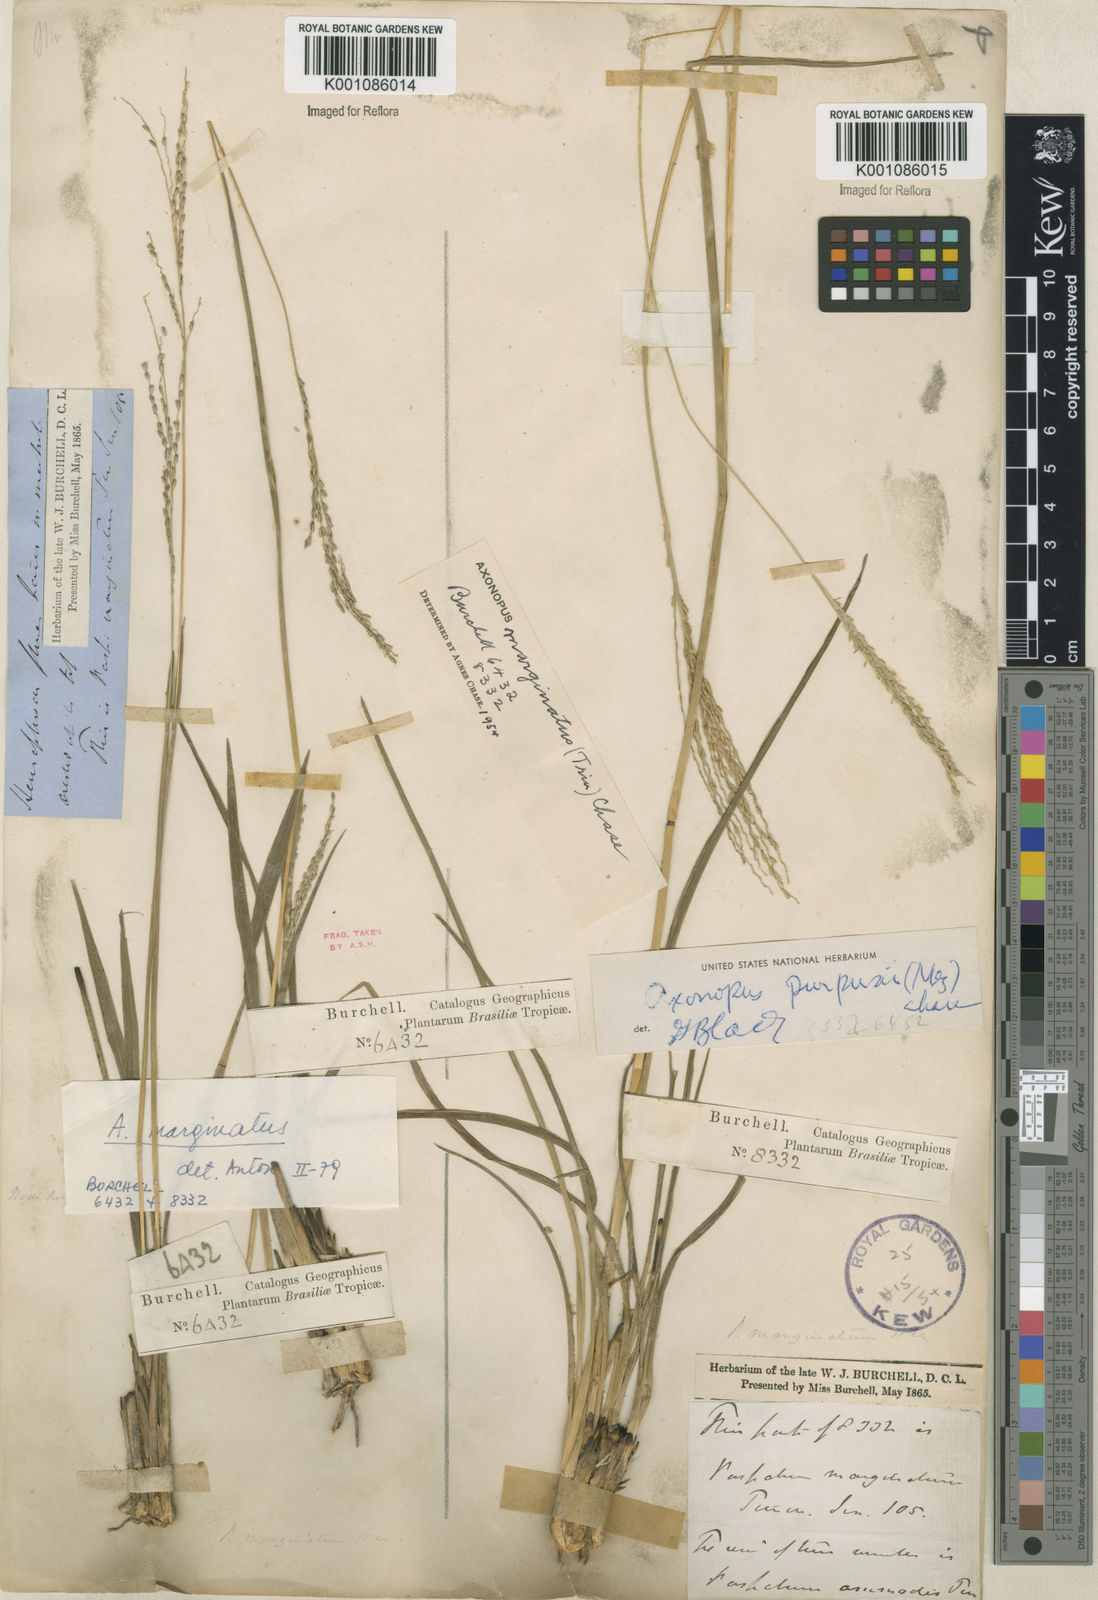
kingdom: Plantae
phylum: Tracheophyta
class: Liliopsida
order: Poales
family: Poaceae
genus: Axonopus
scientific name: Axonopus
